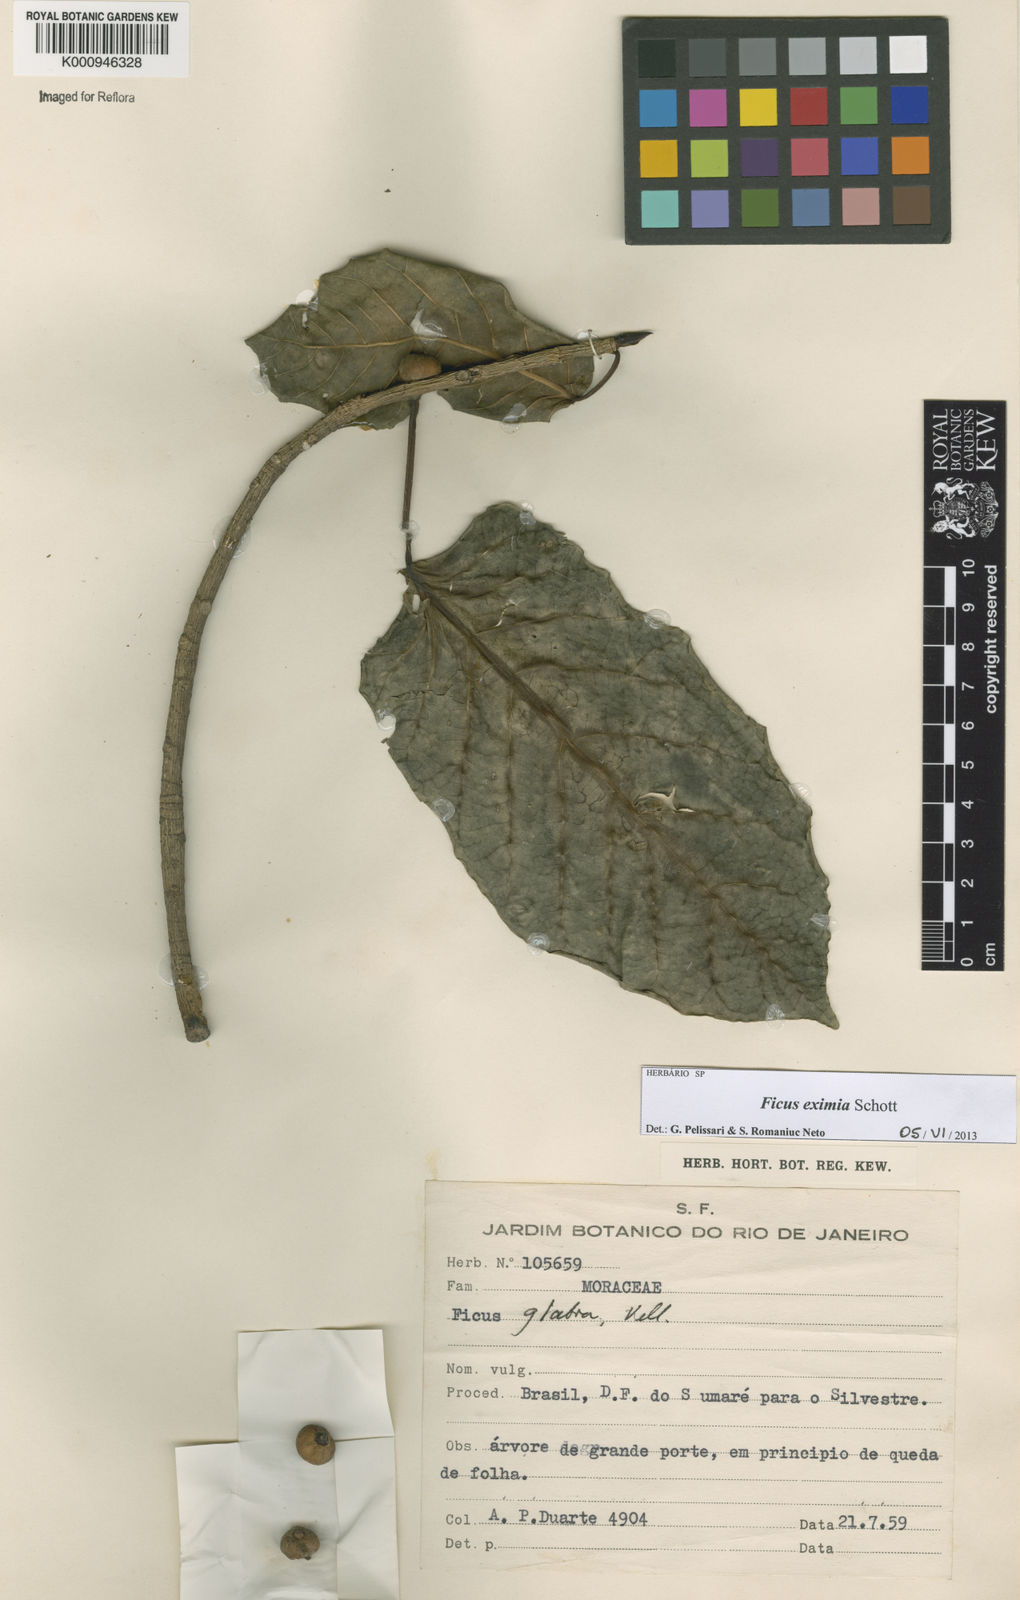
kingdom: Plantae
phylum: Tracheophyta
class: Magnoliopsida
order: Rosales
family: Moraceae
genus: Ficus
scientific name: Ficus eximia
